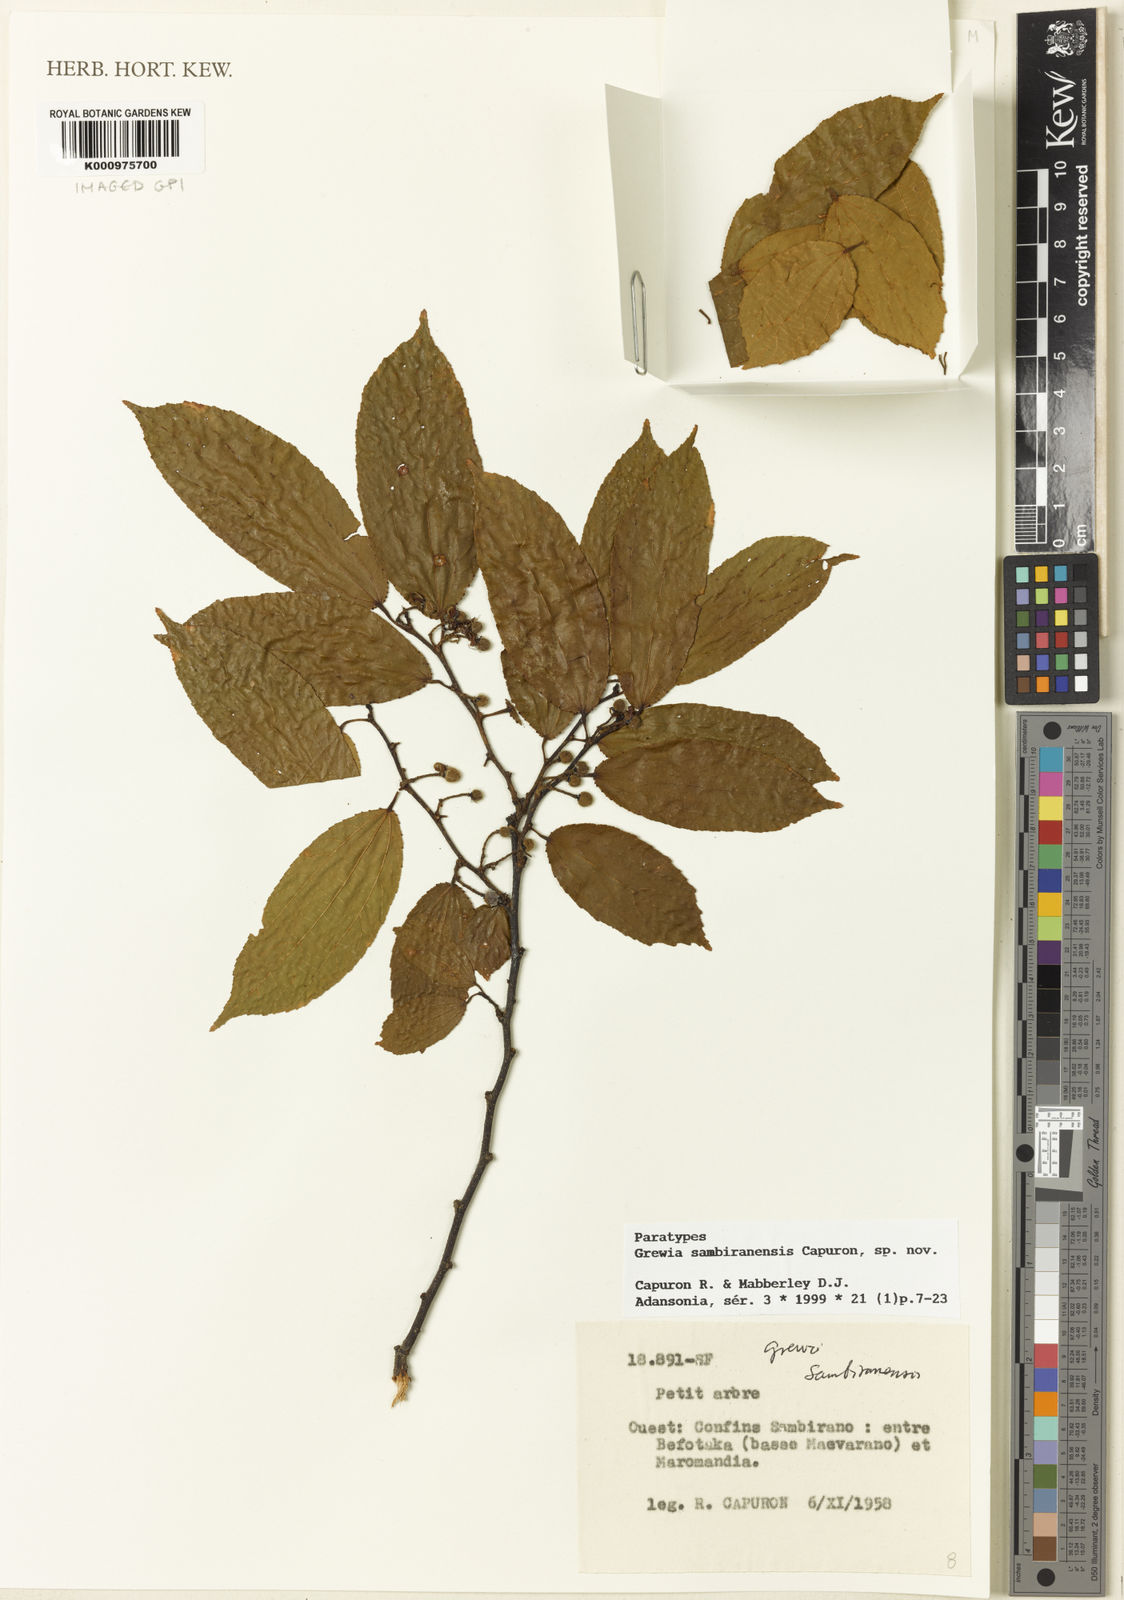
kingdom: Plantae
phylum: Tracheophyta
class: Magnoliopsida
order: Malvales
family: Malvaceae
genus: Grewia
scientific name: Grewia sambiranensis
